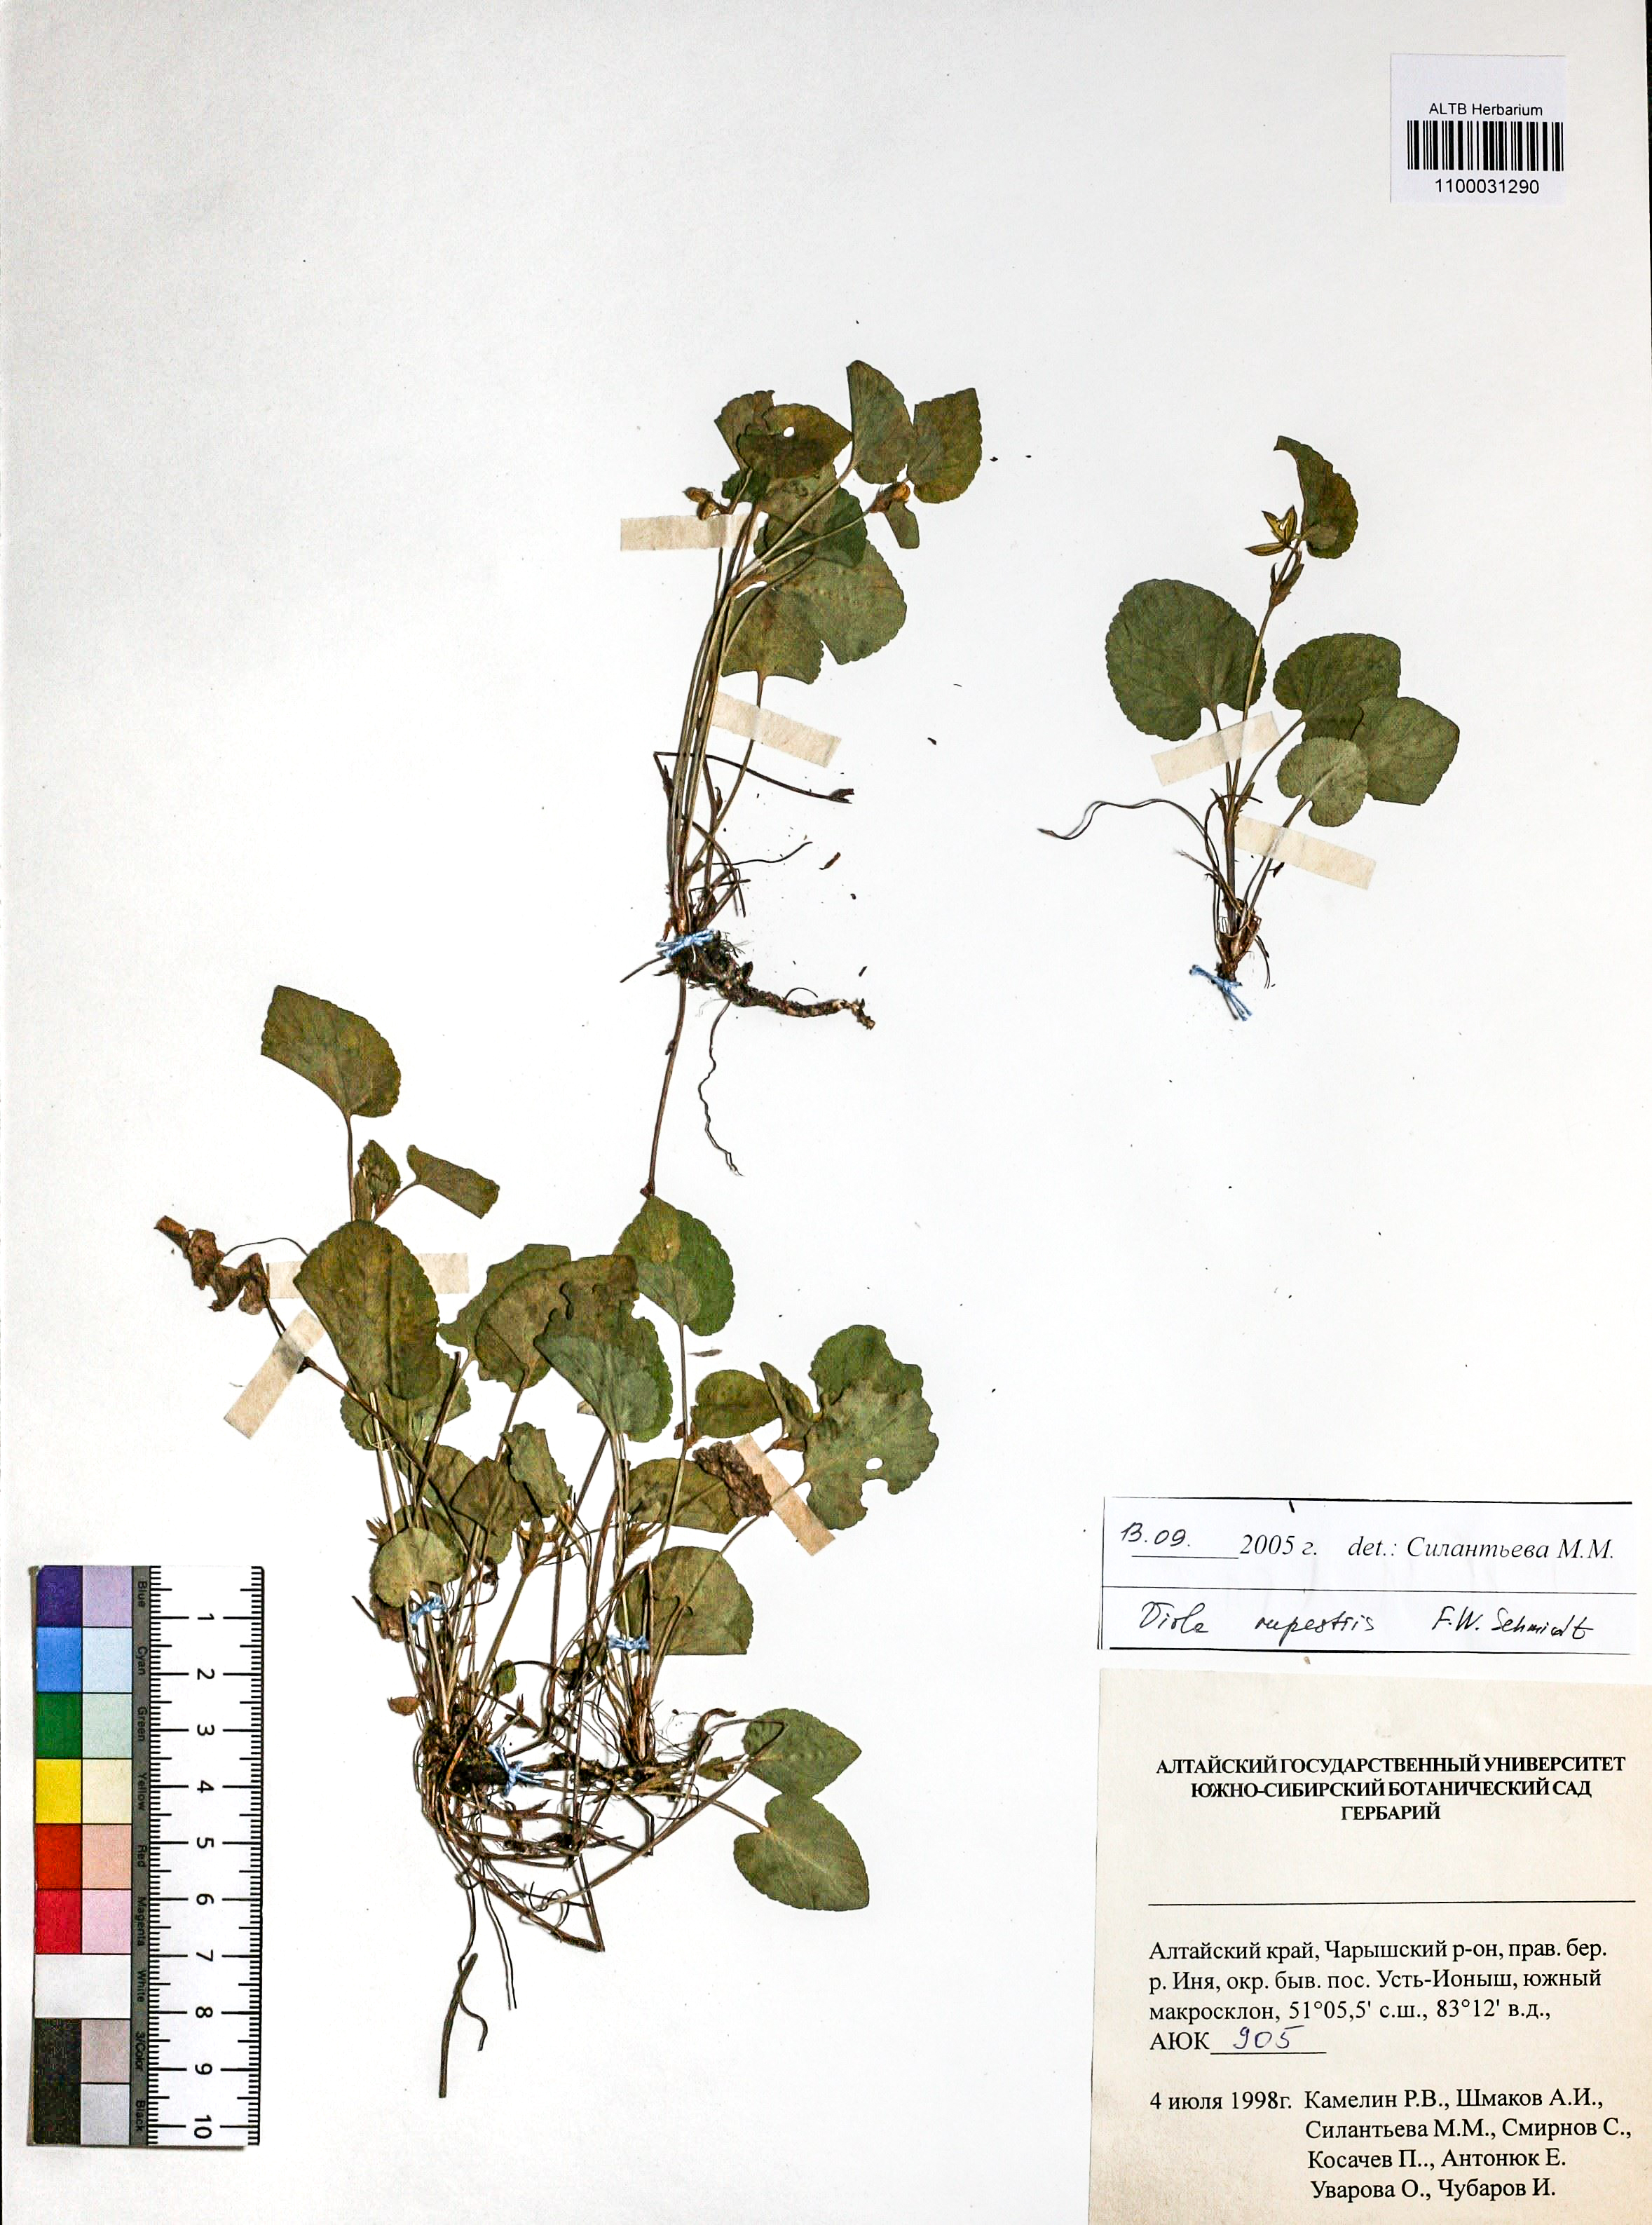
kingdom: Plantae
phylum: Tracheophyta
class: Magnoliopsida
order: Malpighiales
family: Violaceae
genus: Viola
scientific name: Viola rupestris
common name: Teesdale violet
